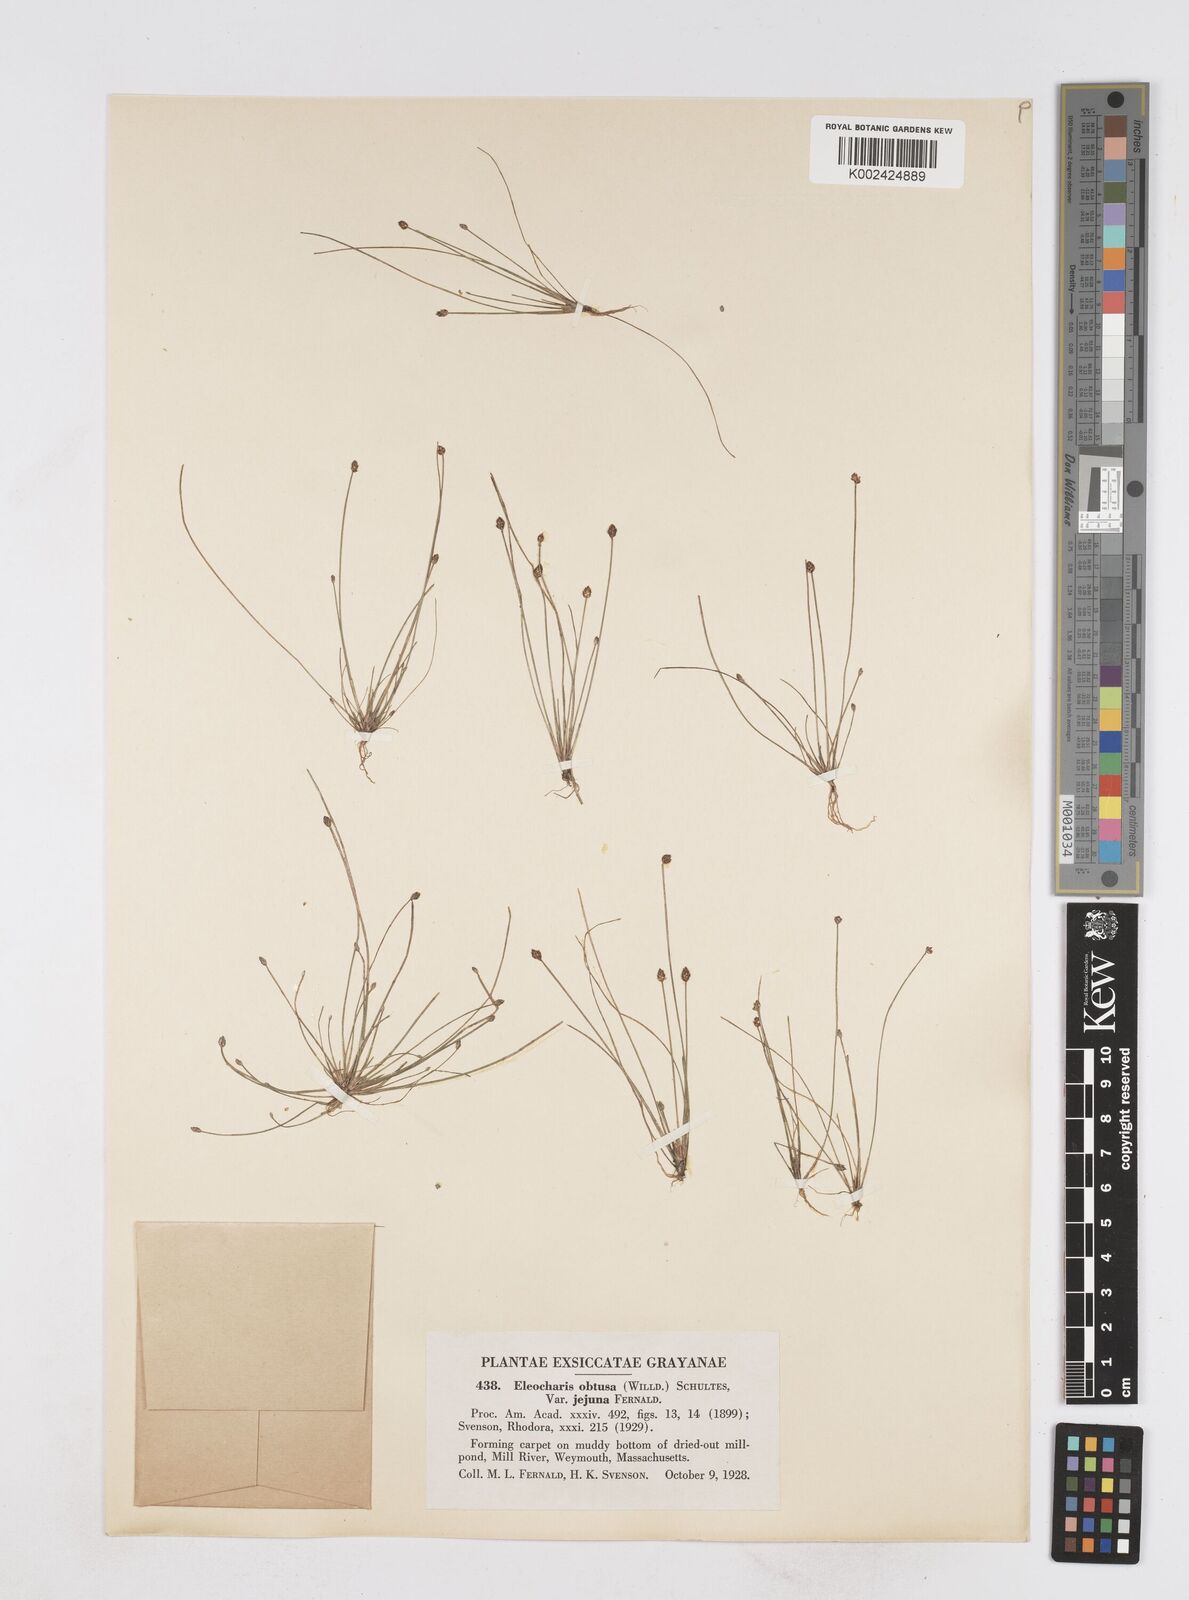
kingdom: Plantae
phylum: Tracheophyta
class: Liliopsida
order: Poales
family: Cyperaceae
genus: Eleocharis
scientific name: Eleocharis obtusa
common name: Blunt spikerush
